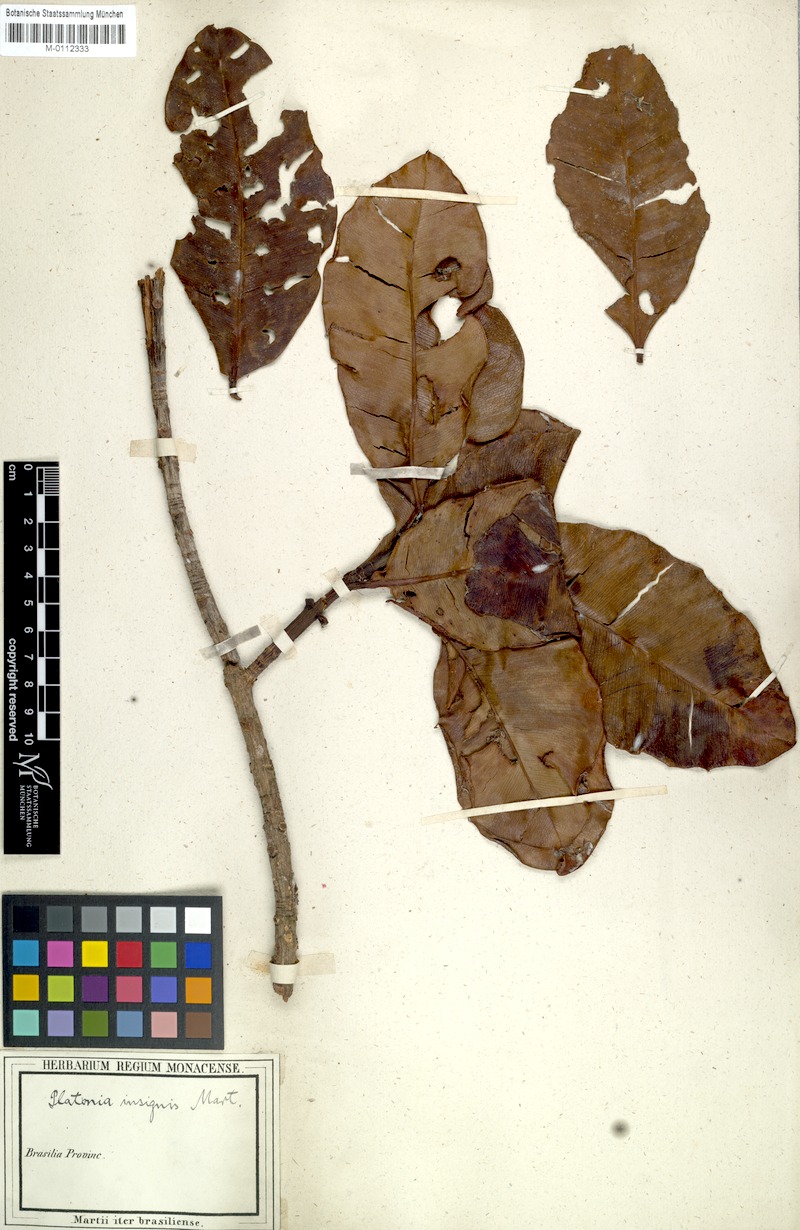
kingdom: Plantae
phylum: Tracheophyta
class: Magnoliopsida
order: Malpighiales
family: Clusiaceae
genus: Platonia
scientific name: Platonia insignis
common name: Bacury
